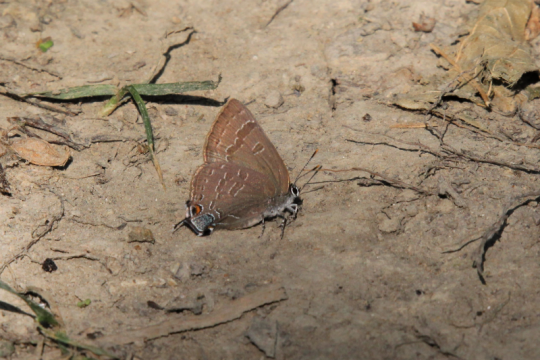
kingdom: Animalia
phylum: Arthropoda
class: Insecta
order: Lepidoptera
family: Lycaenidae
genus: Strymon
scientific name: Strymon caryaevorus
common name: Hickory Hairstreak
